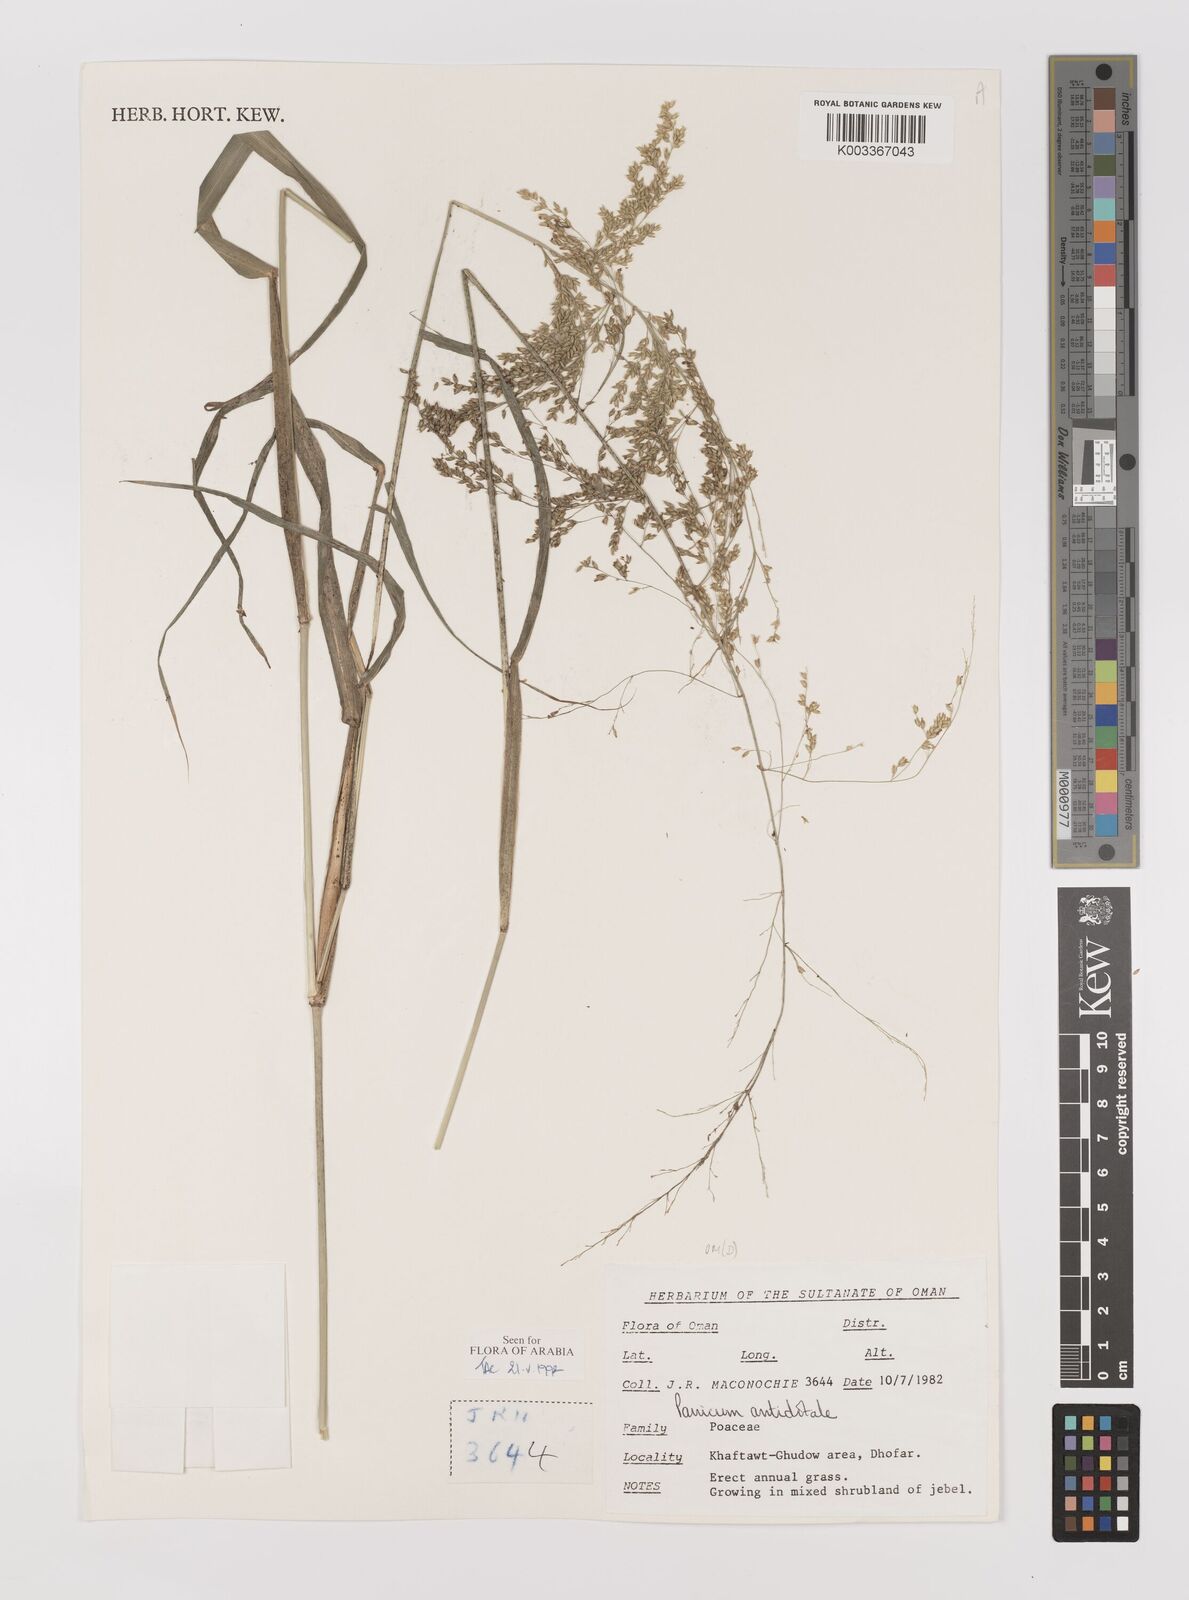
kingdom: Plantae
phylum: Tracheophyta
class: Liliopsida
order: Poales
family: Poaceae
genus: Panicum
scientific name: Panicum antidotale
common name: Blue panicum
